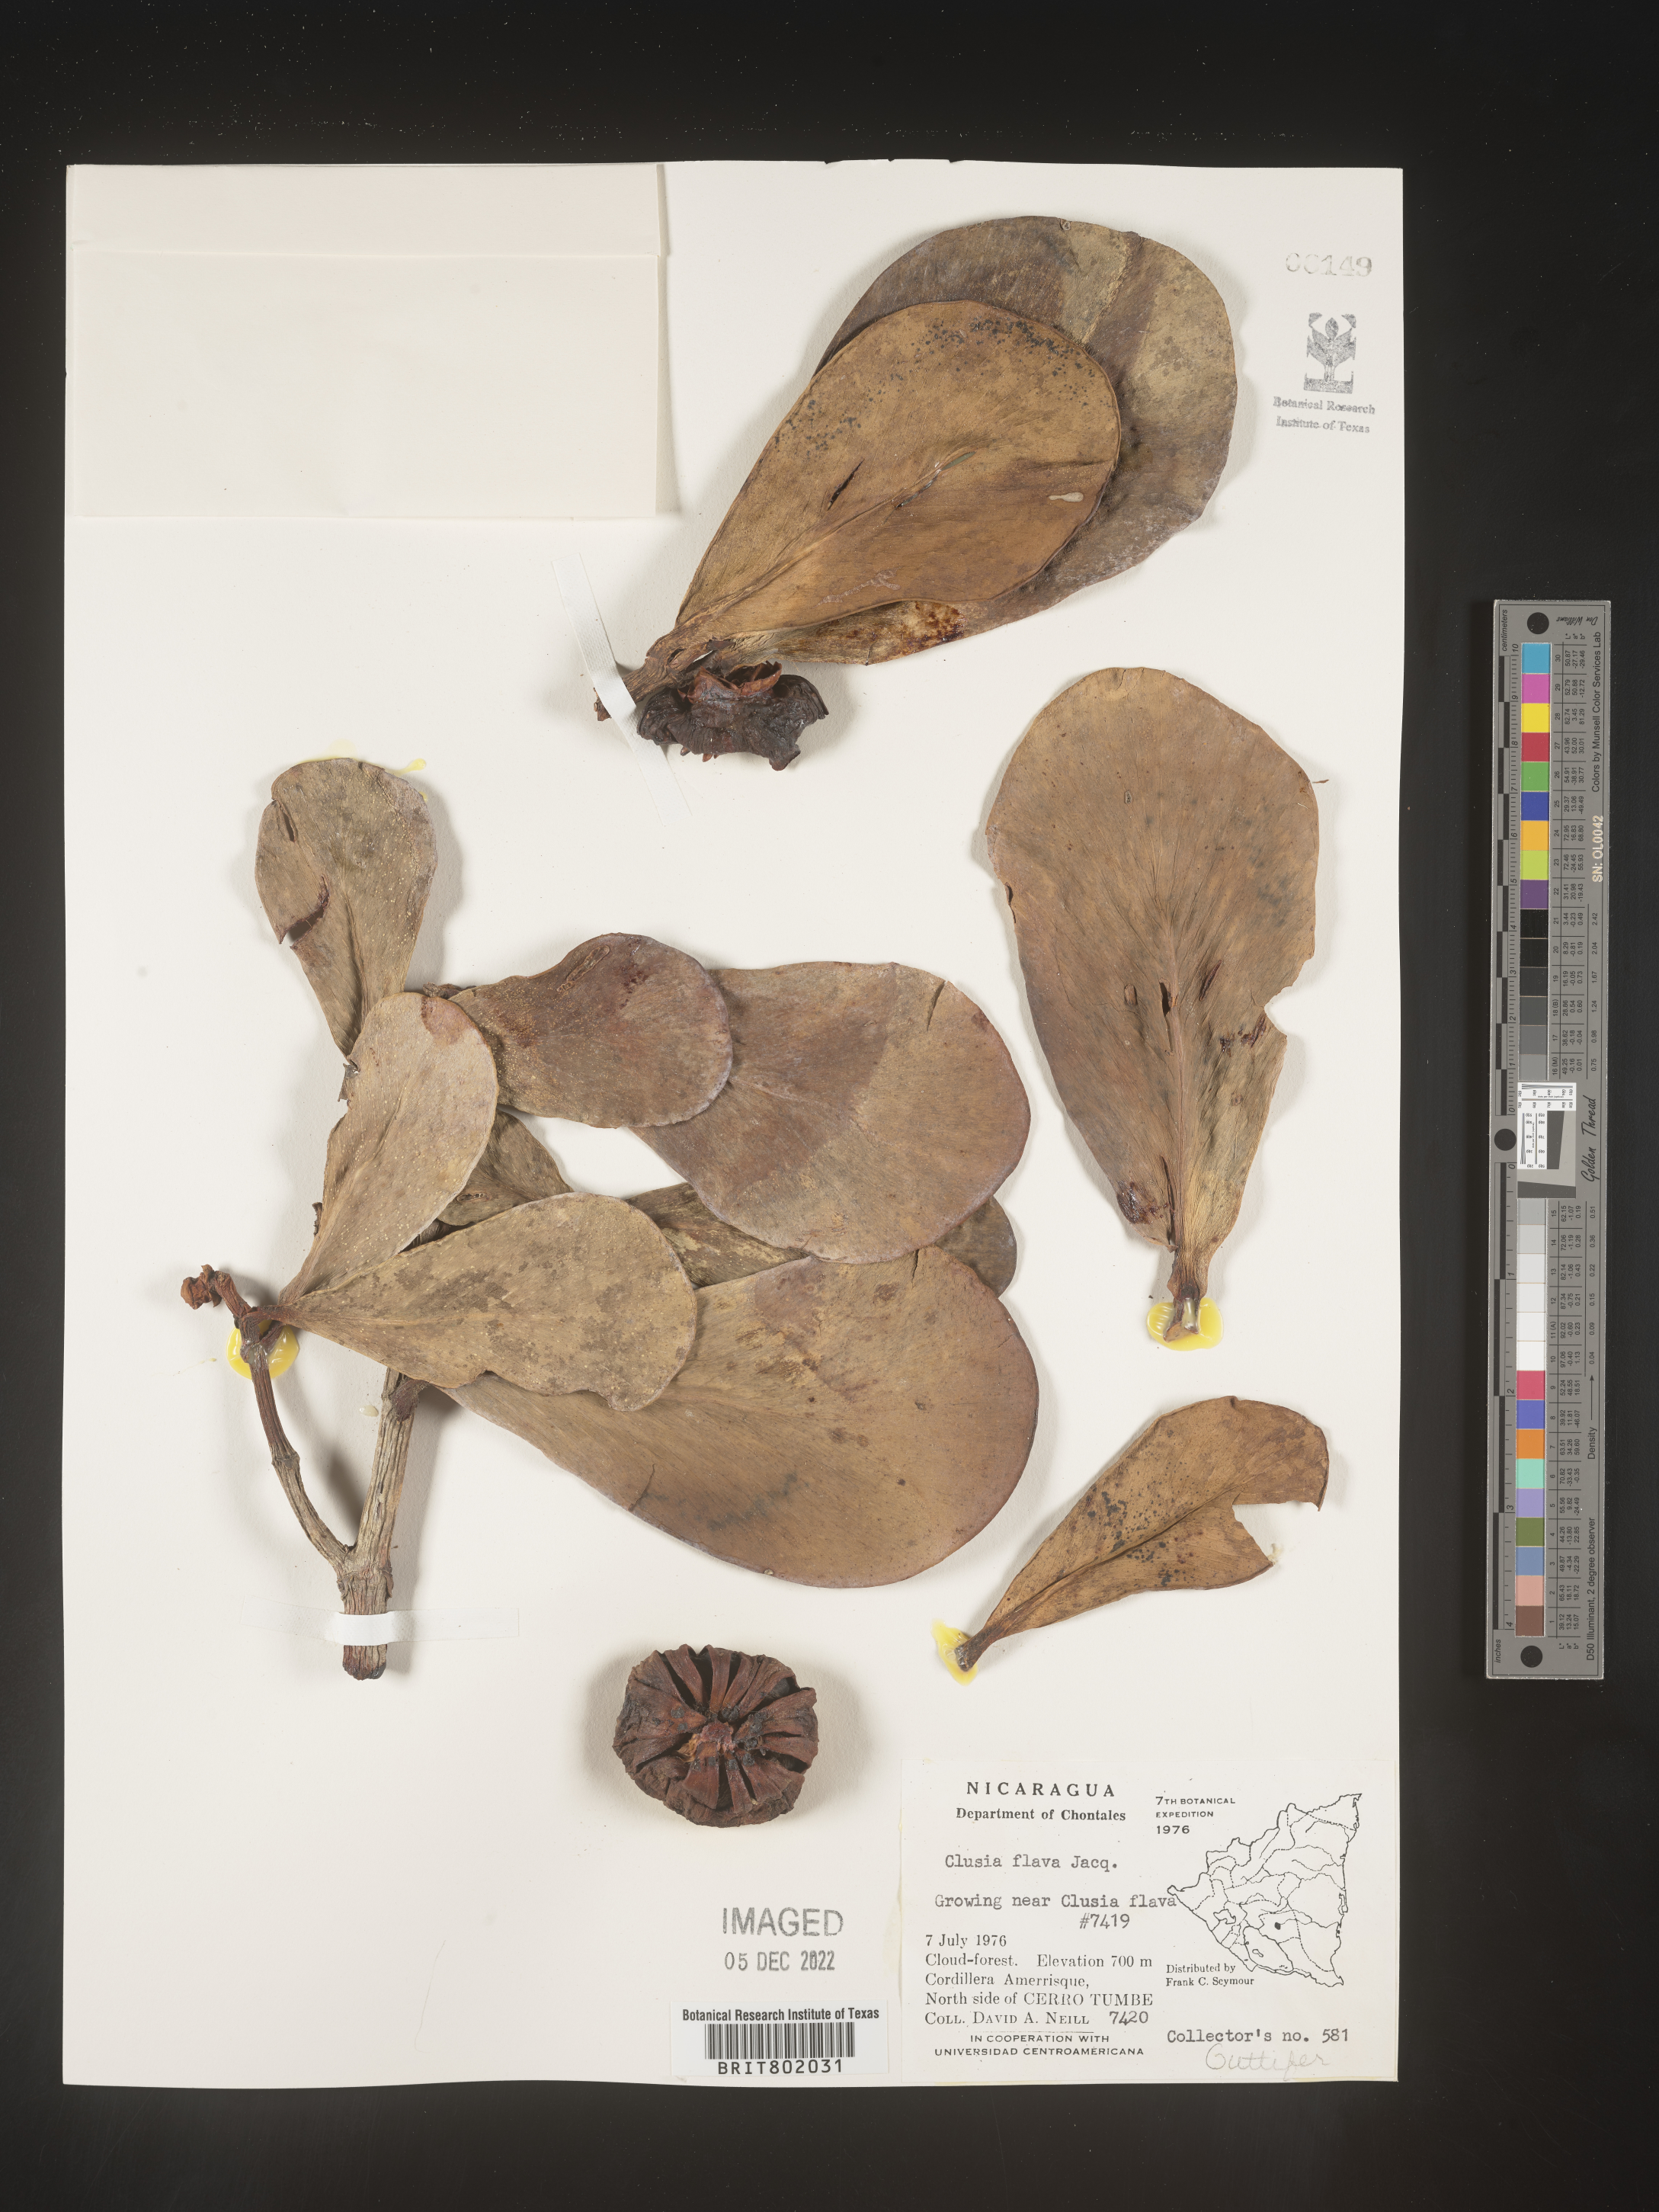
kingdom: Plantae
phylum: Tracheophyta
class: Magnoliopsida
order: Malpighiales
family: Clusiaceae
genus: Clusia
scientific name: Clusia
